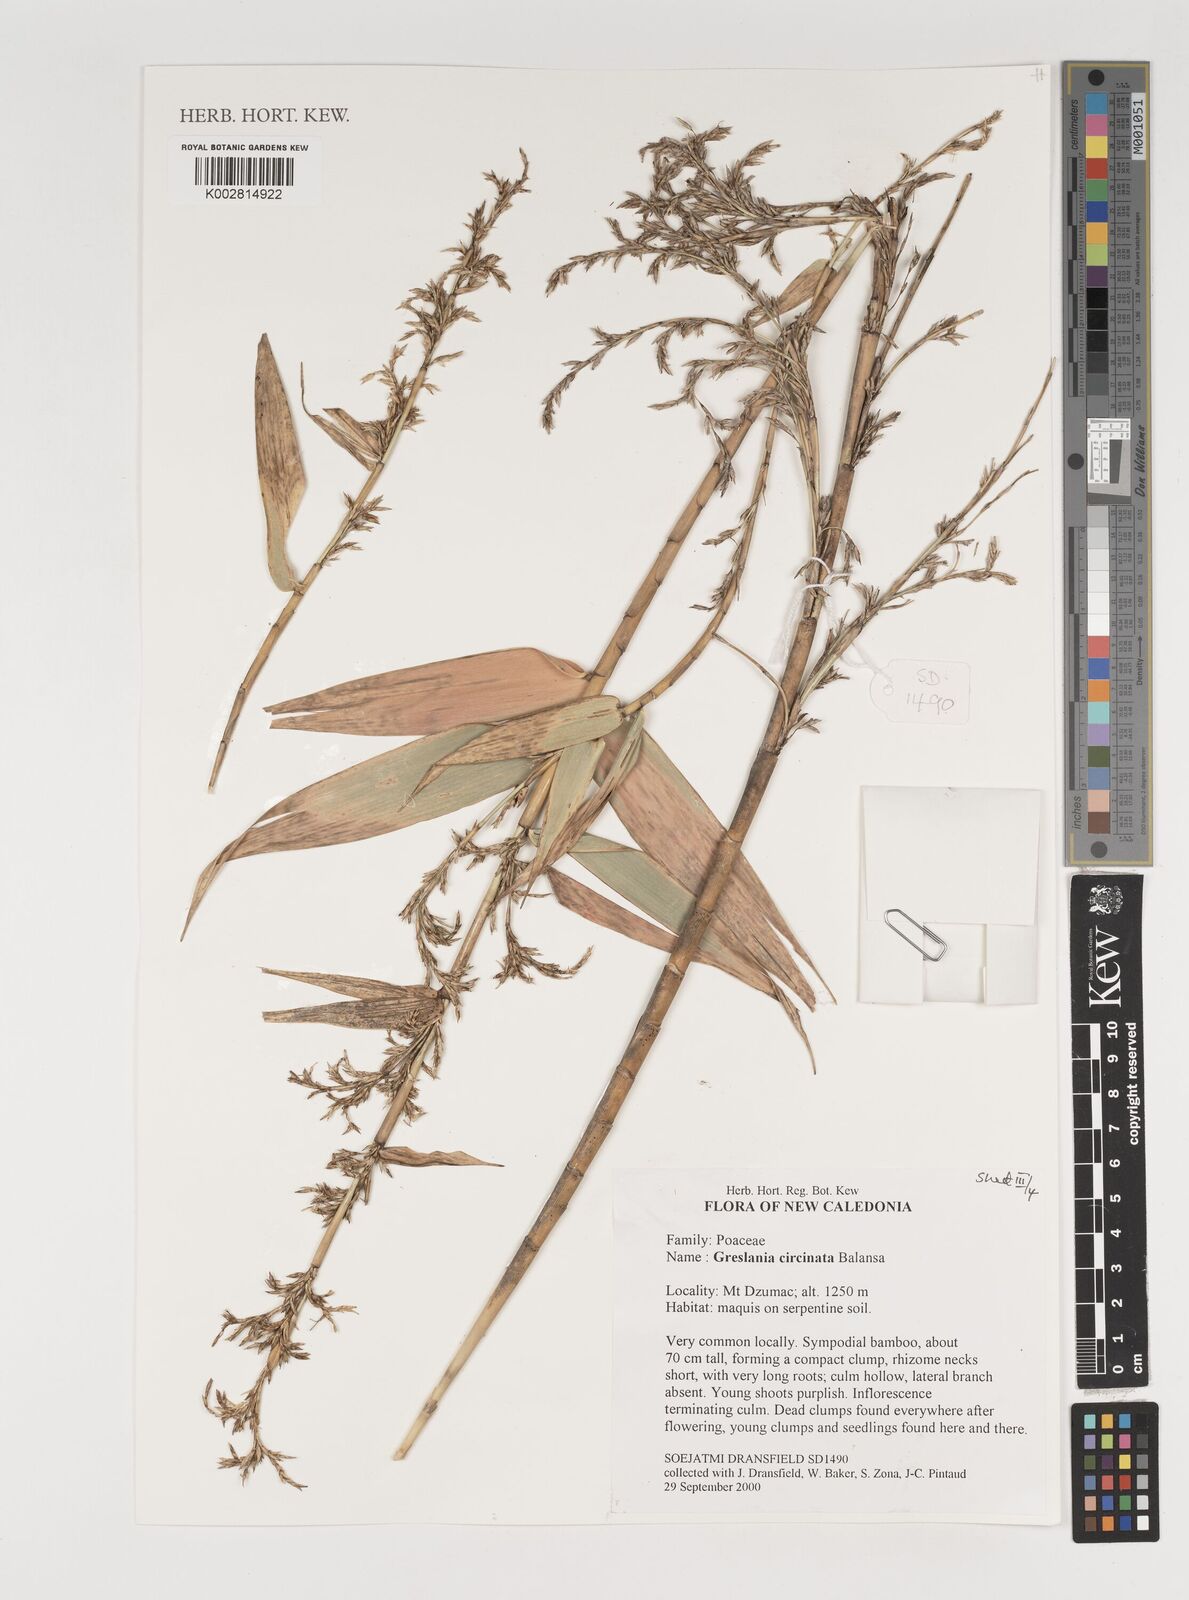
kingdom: Plantae
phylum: Tracheophyta
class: Liliopsida
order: Poales
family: Poaceae
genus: Greslania
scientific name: Greslania circinata
